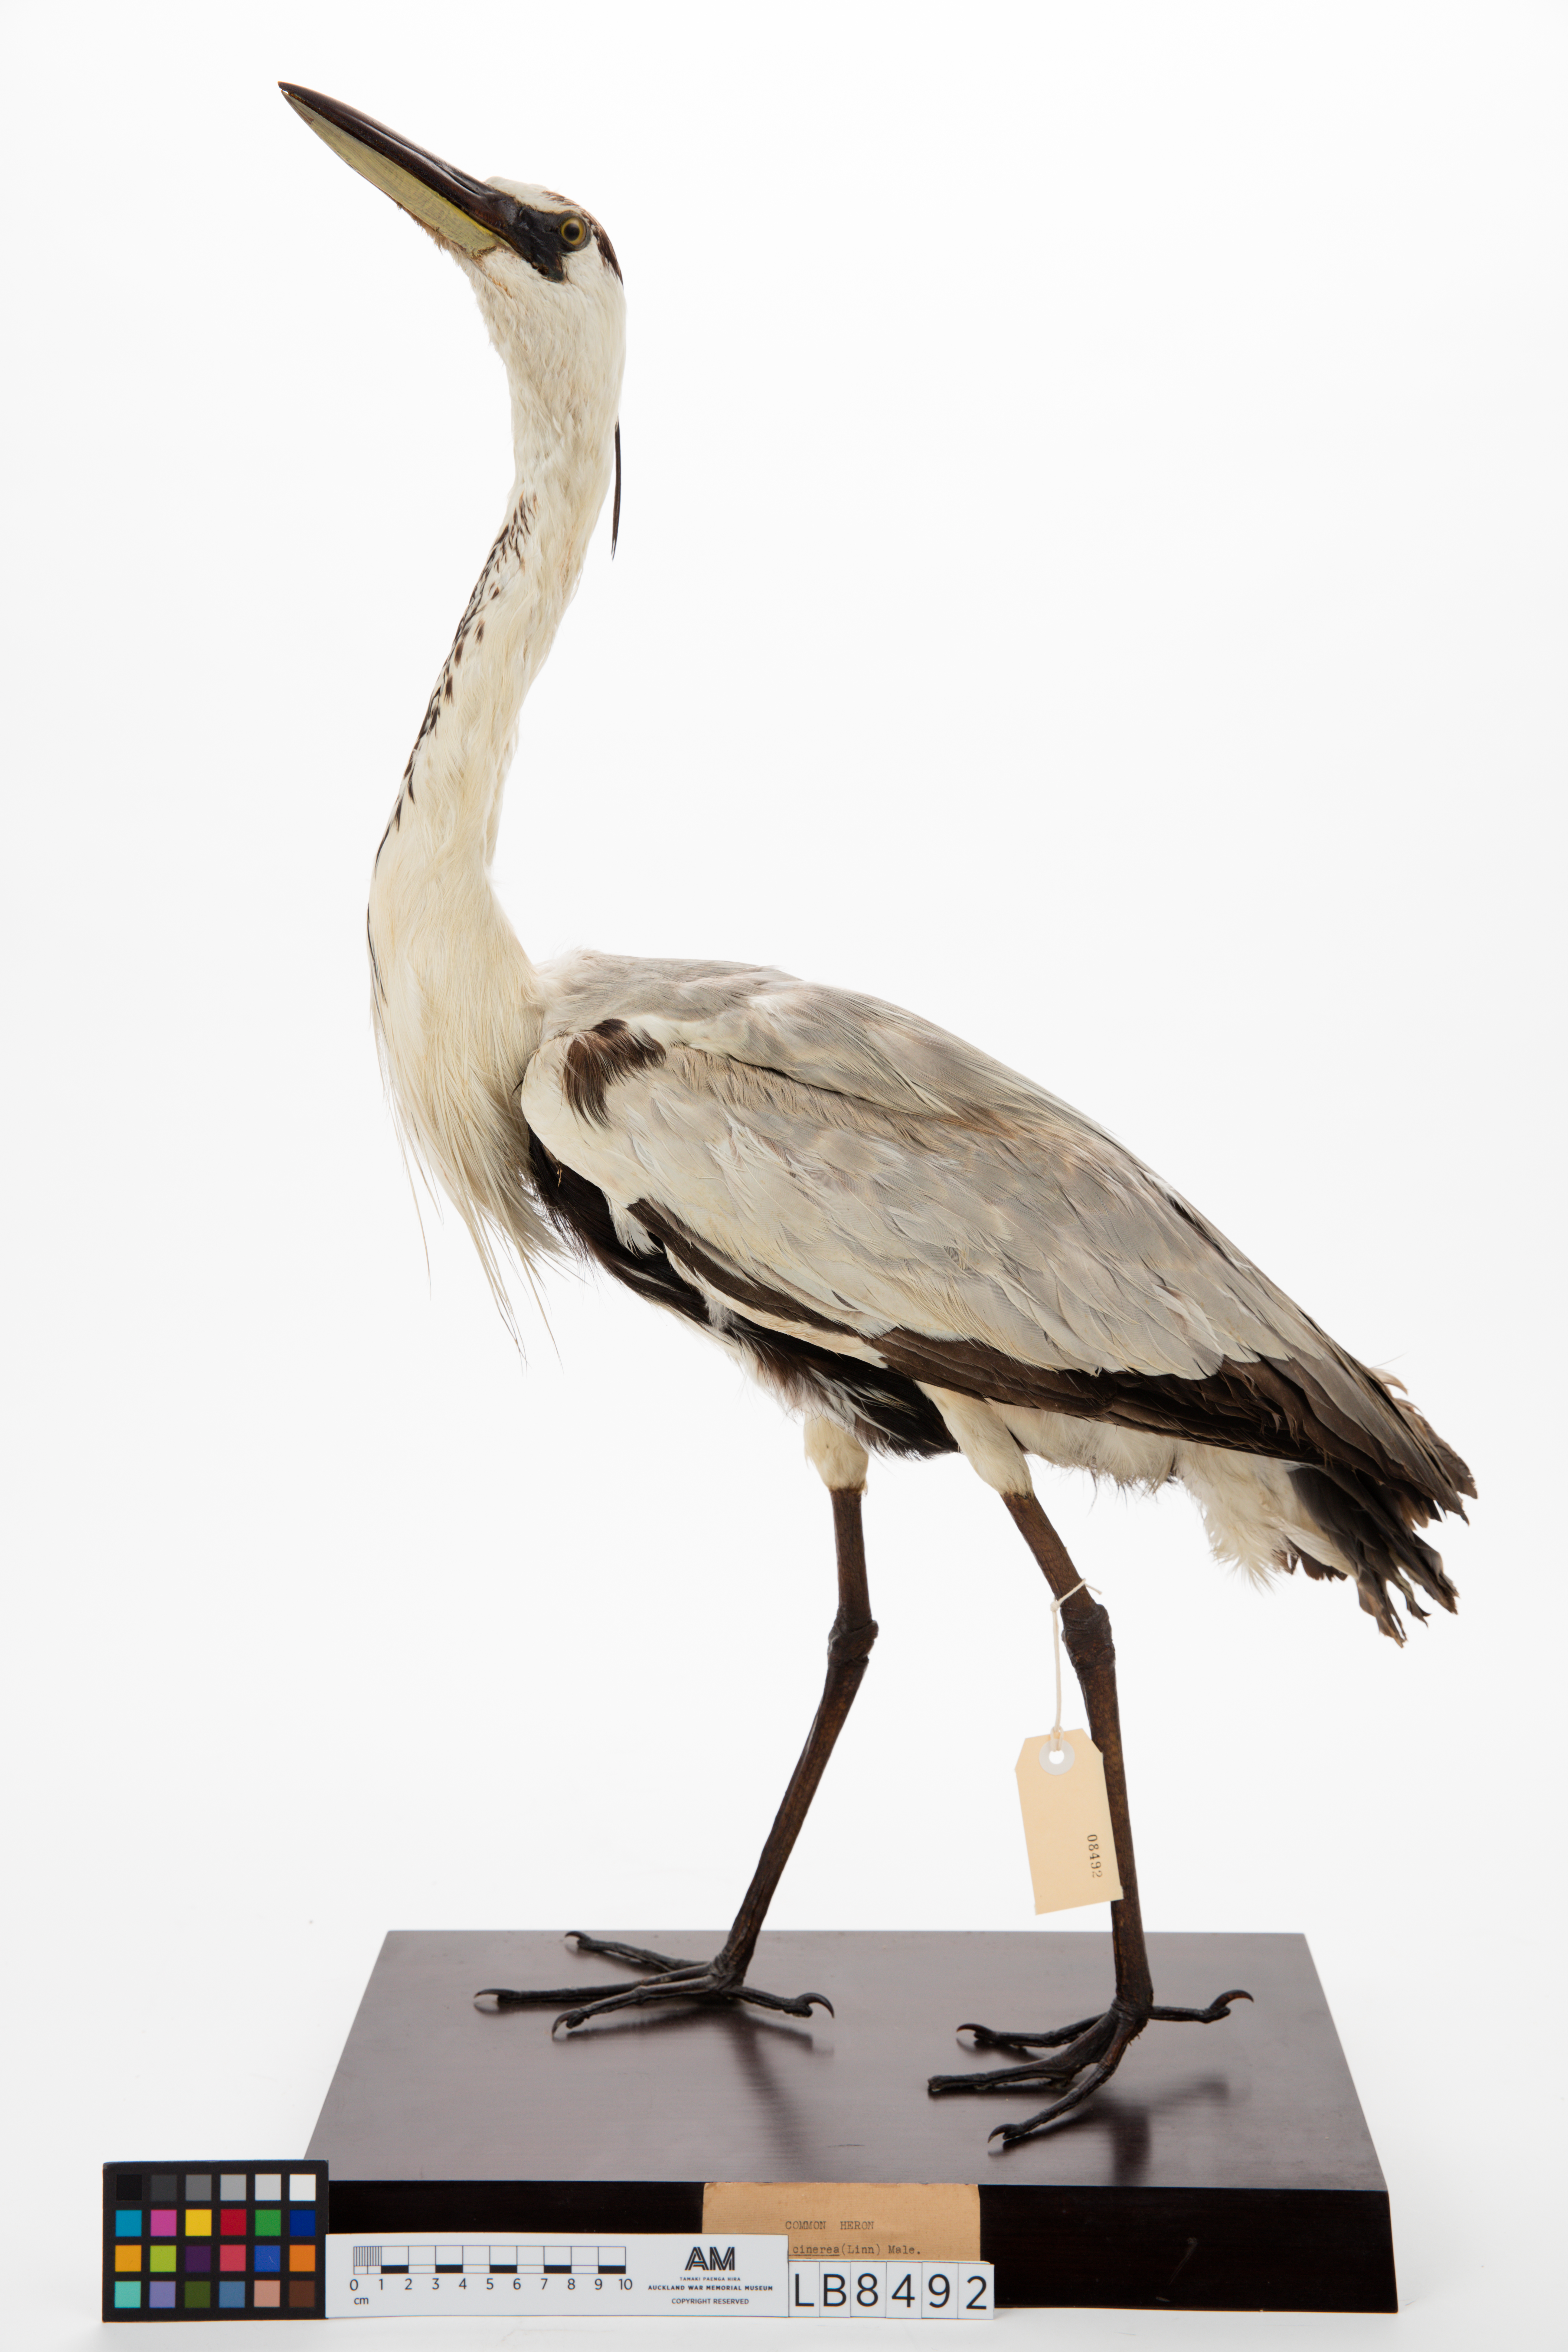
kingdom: Animalia
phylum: Chordata
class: Aves
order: Pelecaniformes
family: Ardeidae
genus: Ardea
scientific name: Ardea cinerea
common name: Grey heron
